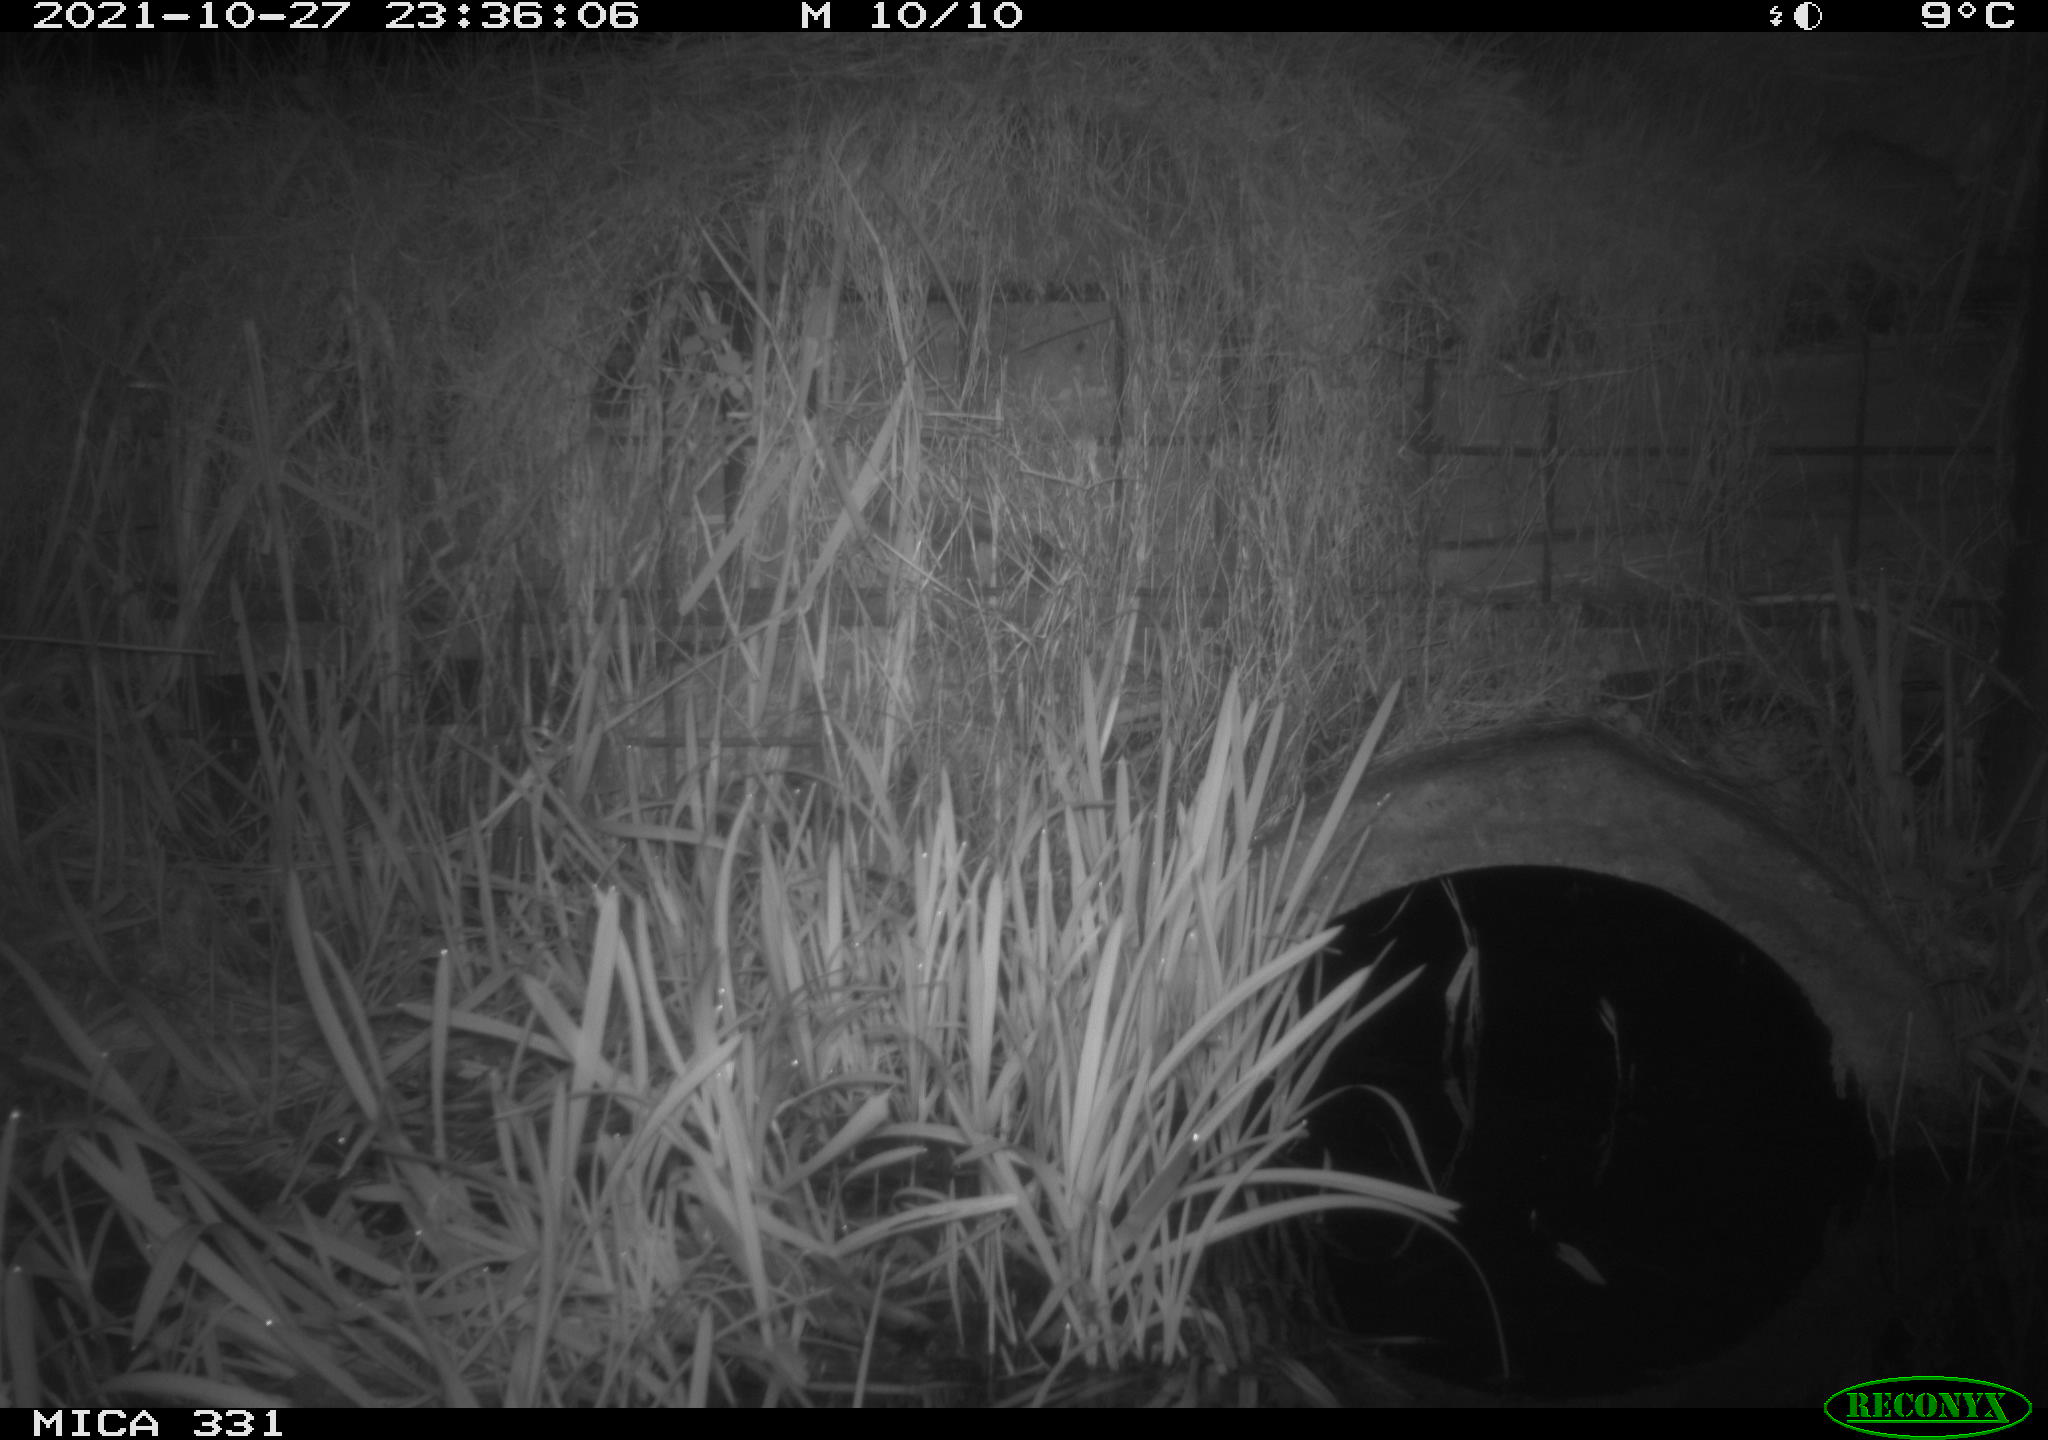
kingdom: Animalia
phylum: Chordata
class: Mammalia
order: Rodentia
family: Muridae
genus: Rattus
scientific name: Rattus norvegicus
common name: Brown rat
